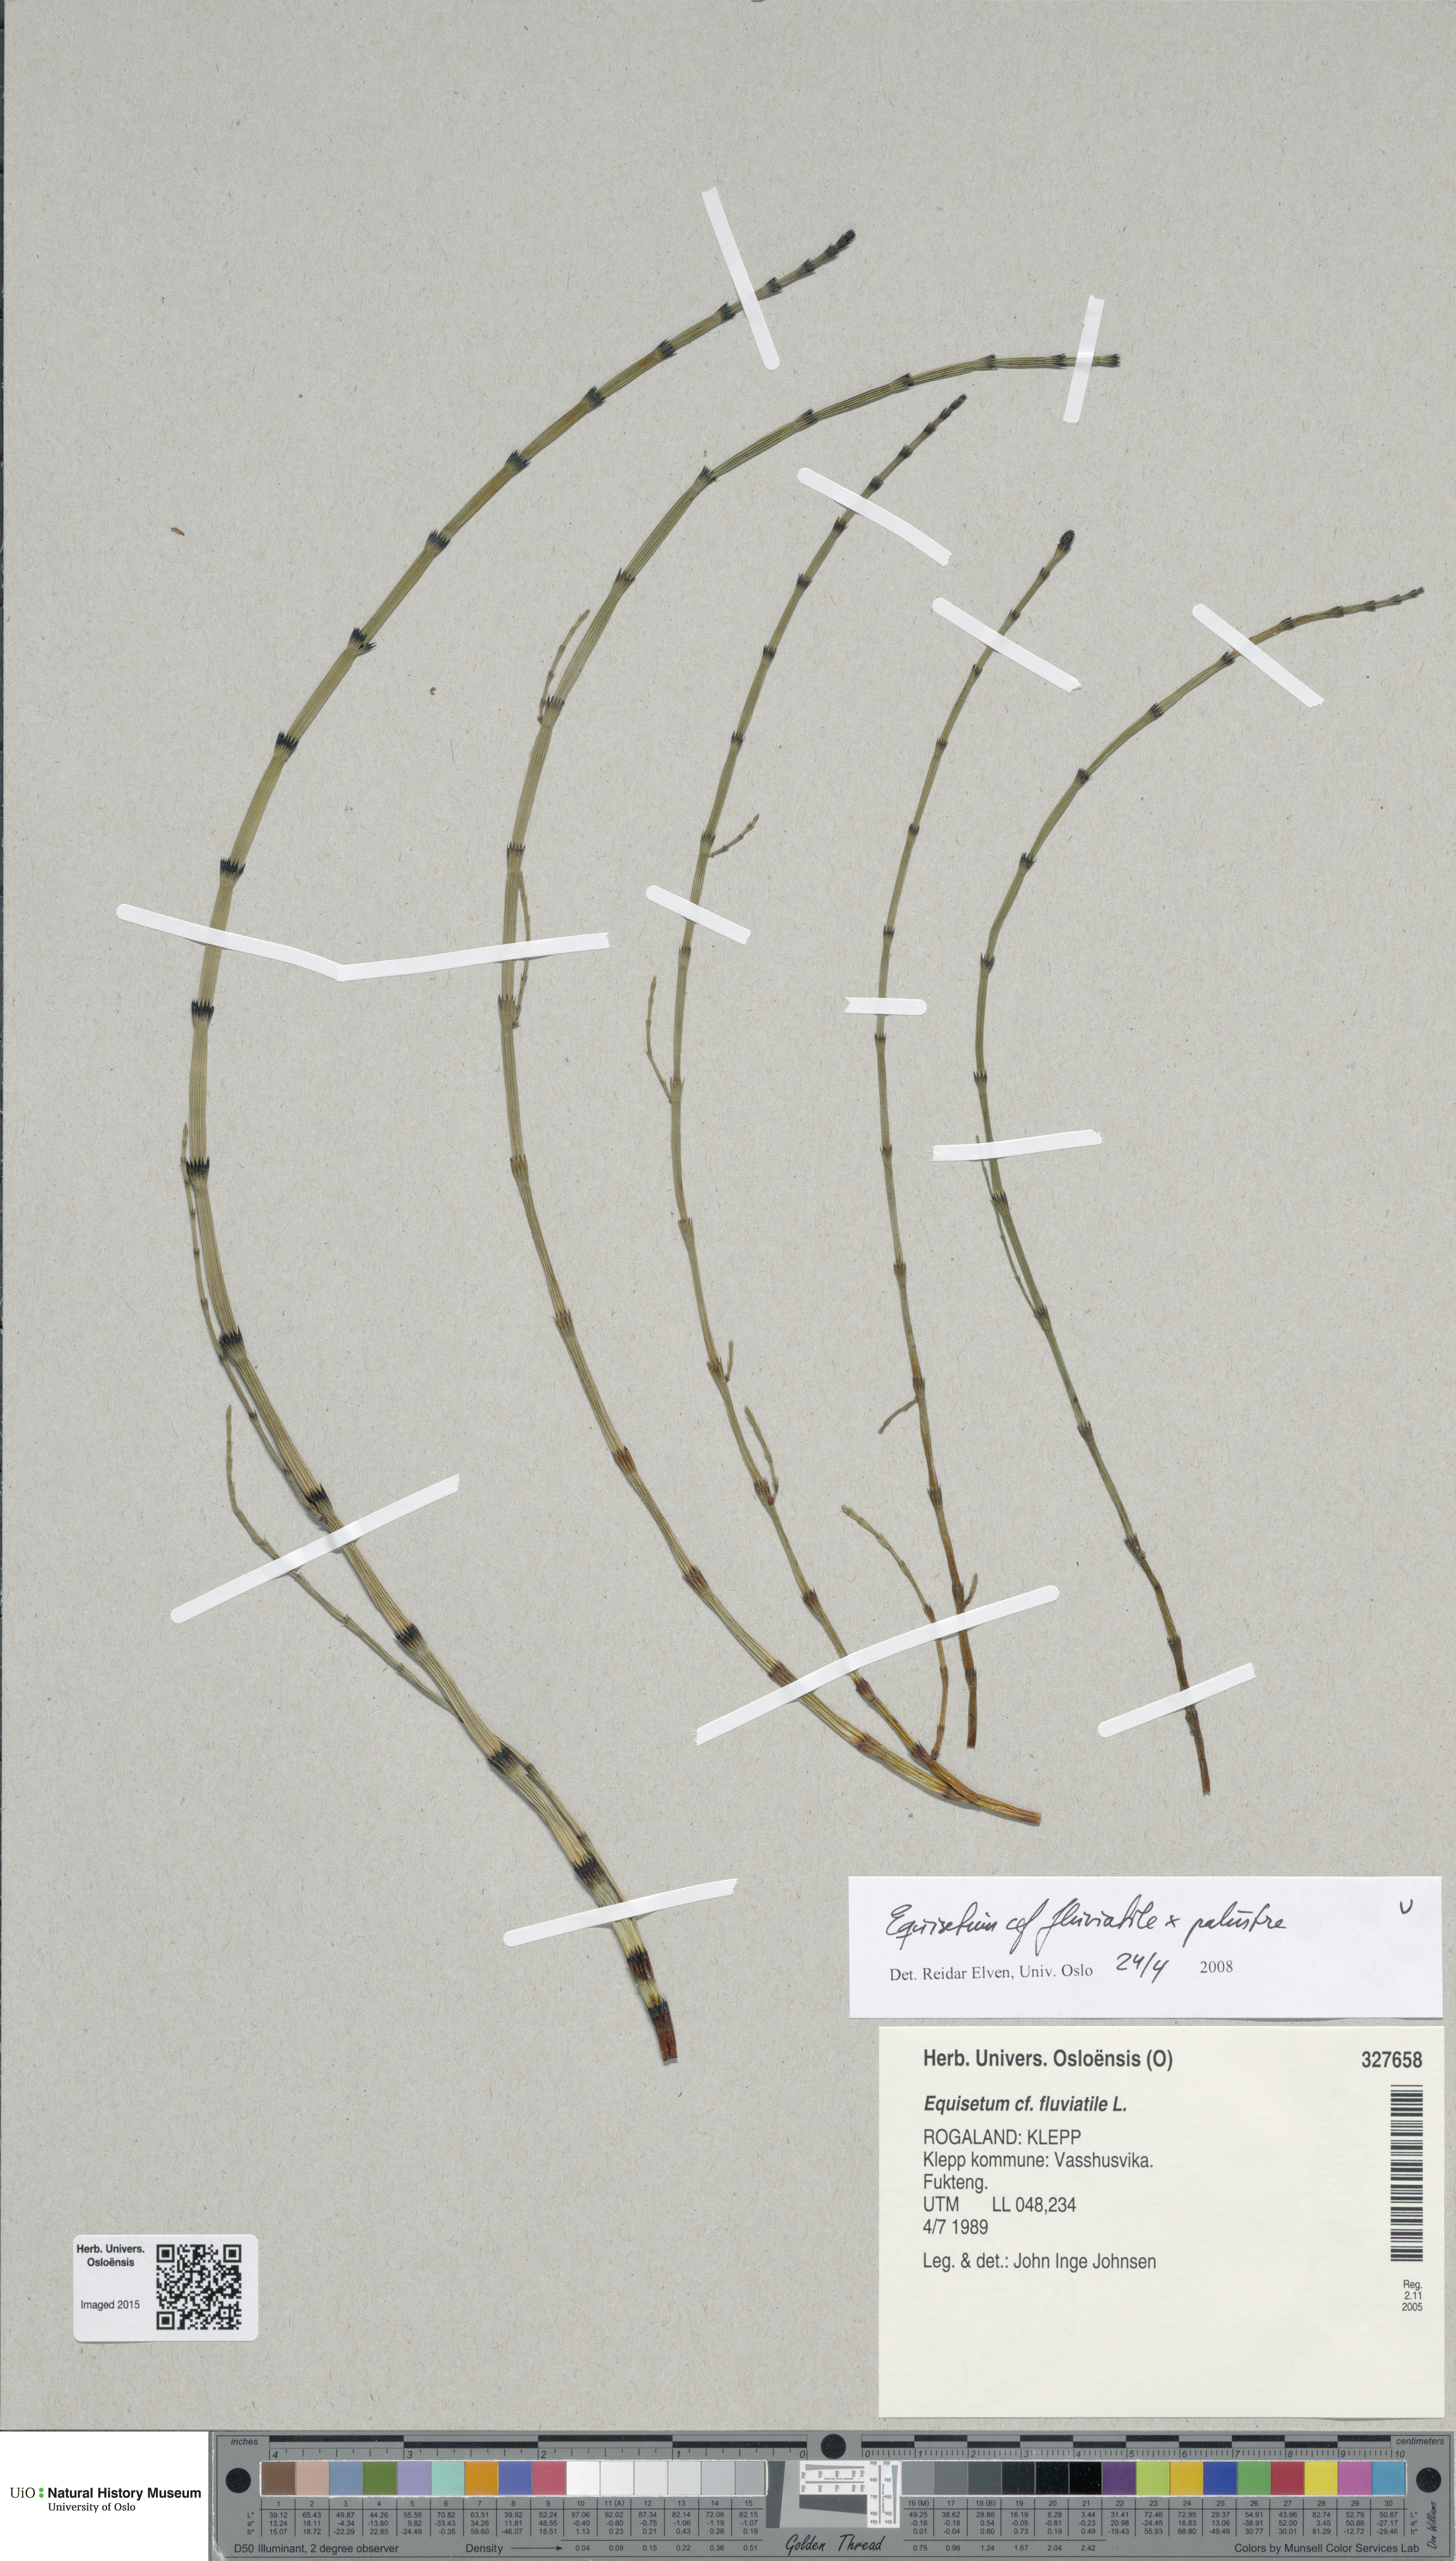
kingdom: Plantae
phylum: Tracheophyta
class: Polypodiopsida
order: Equisetales
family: Equisetaceae
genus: Equisetum
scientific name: Equisetum
